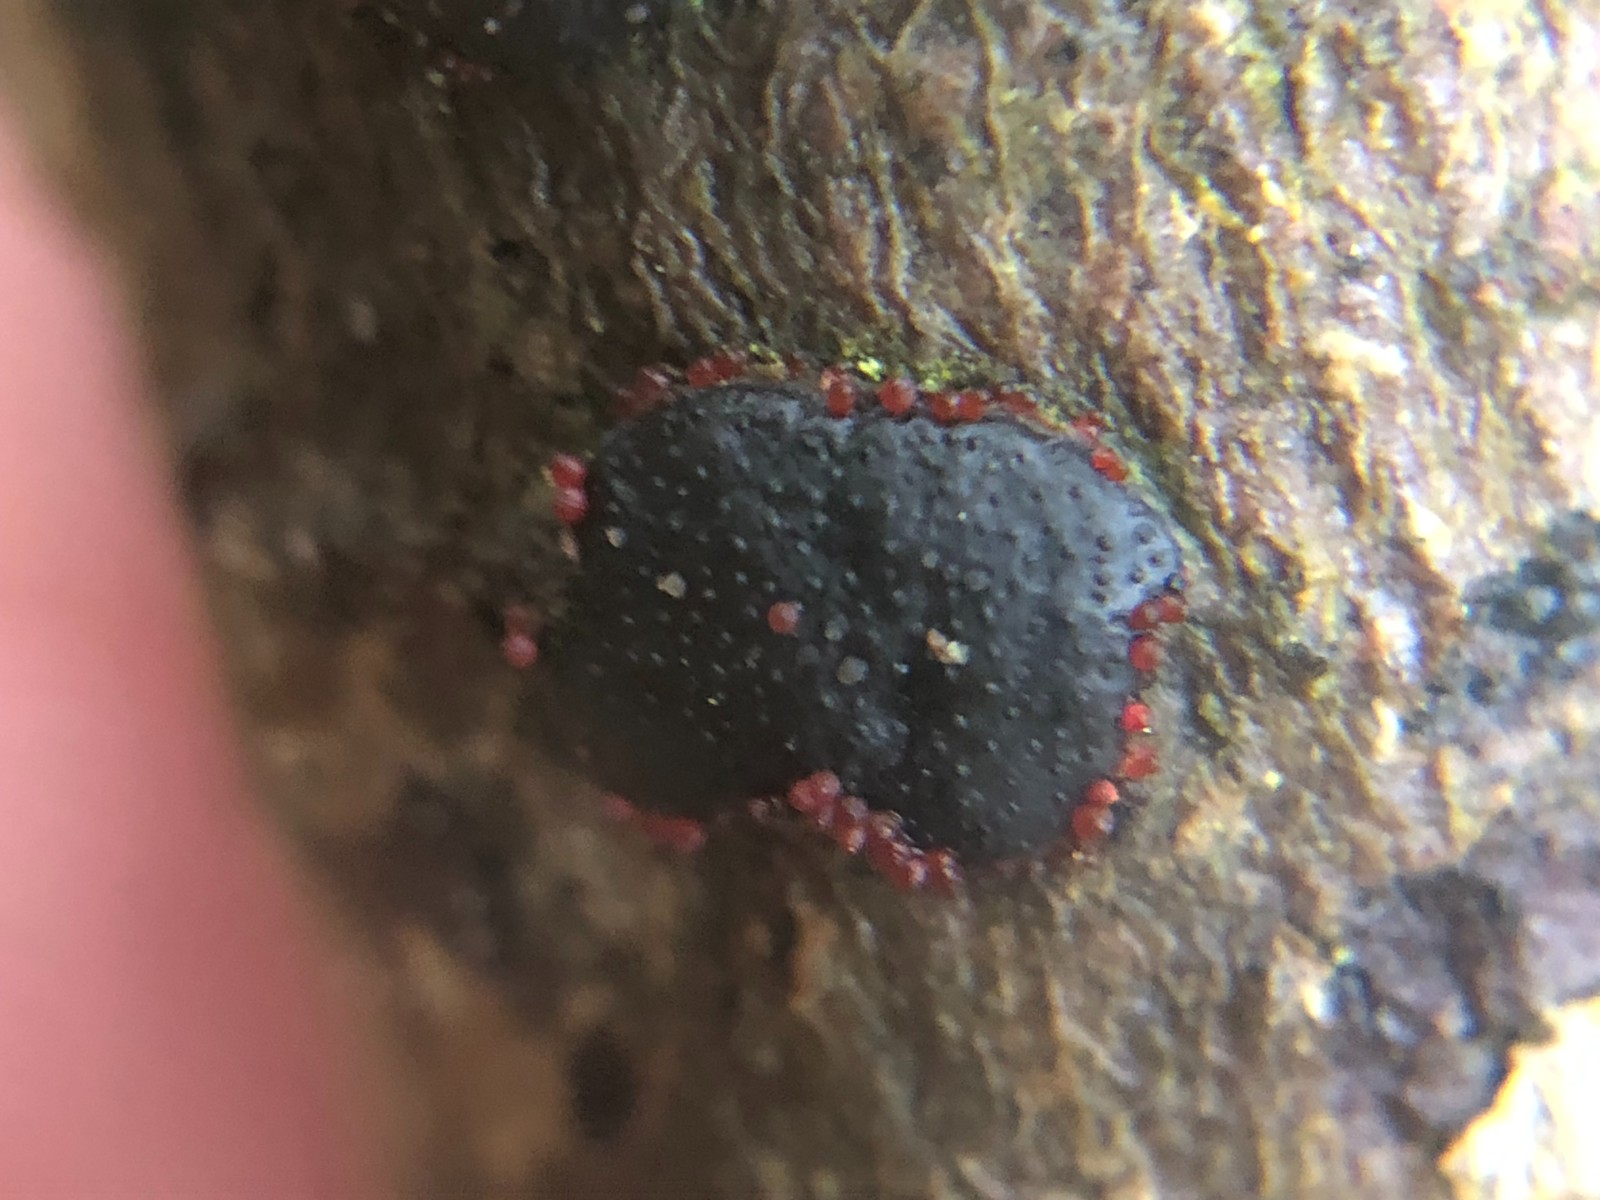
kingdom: Fungi
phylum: Ascomycota
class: Sordariomycetes
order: Hypocreales
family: Nectriaceae
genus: Dialonectria
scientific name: Dialonectria diatrypicola
